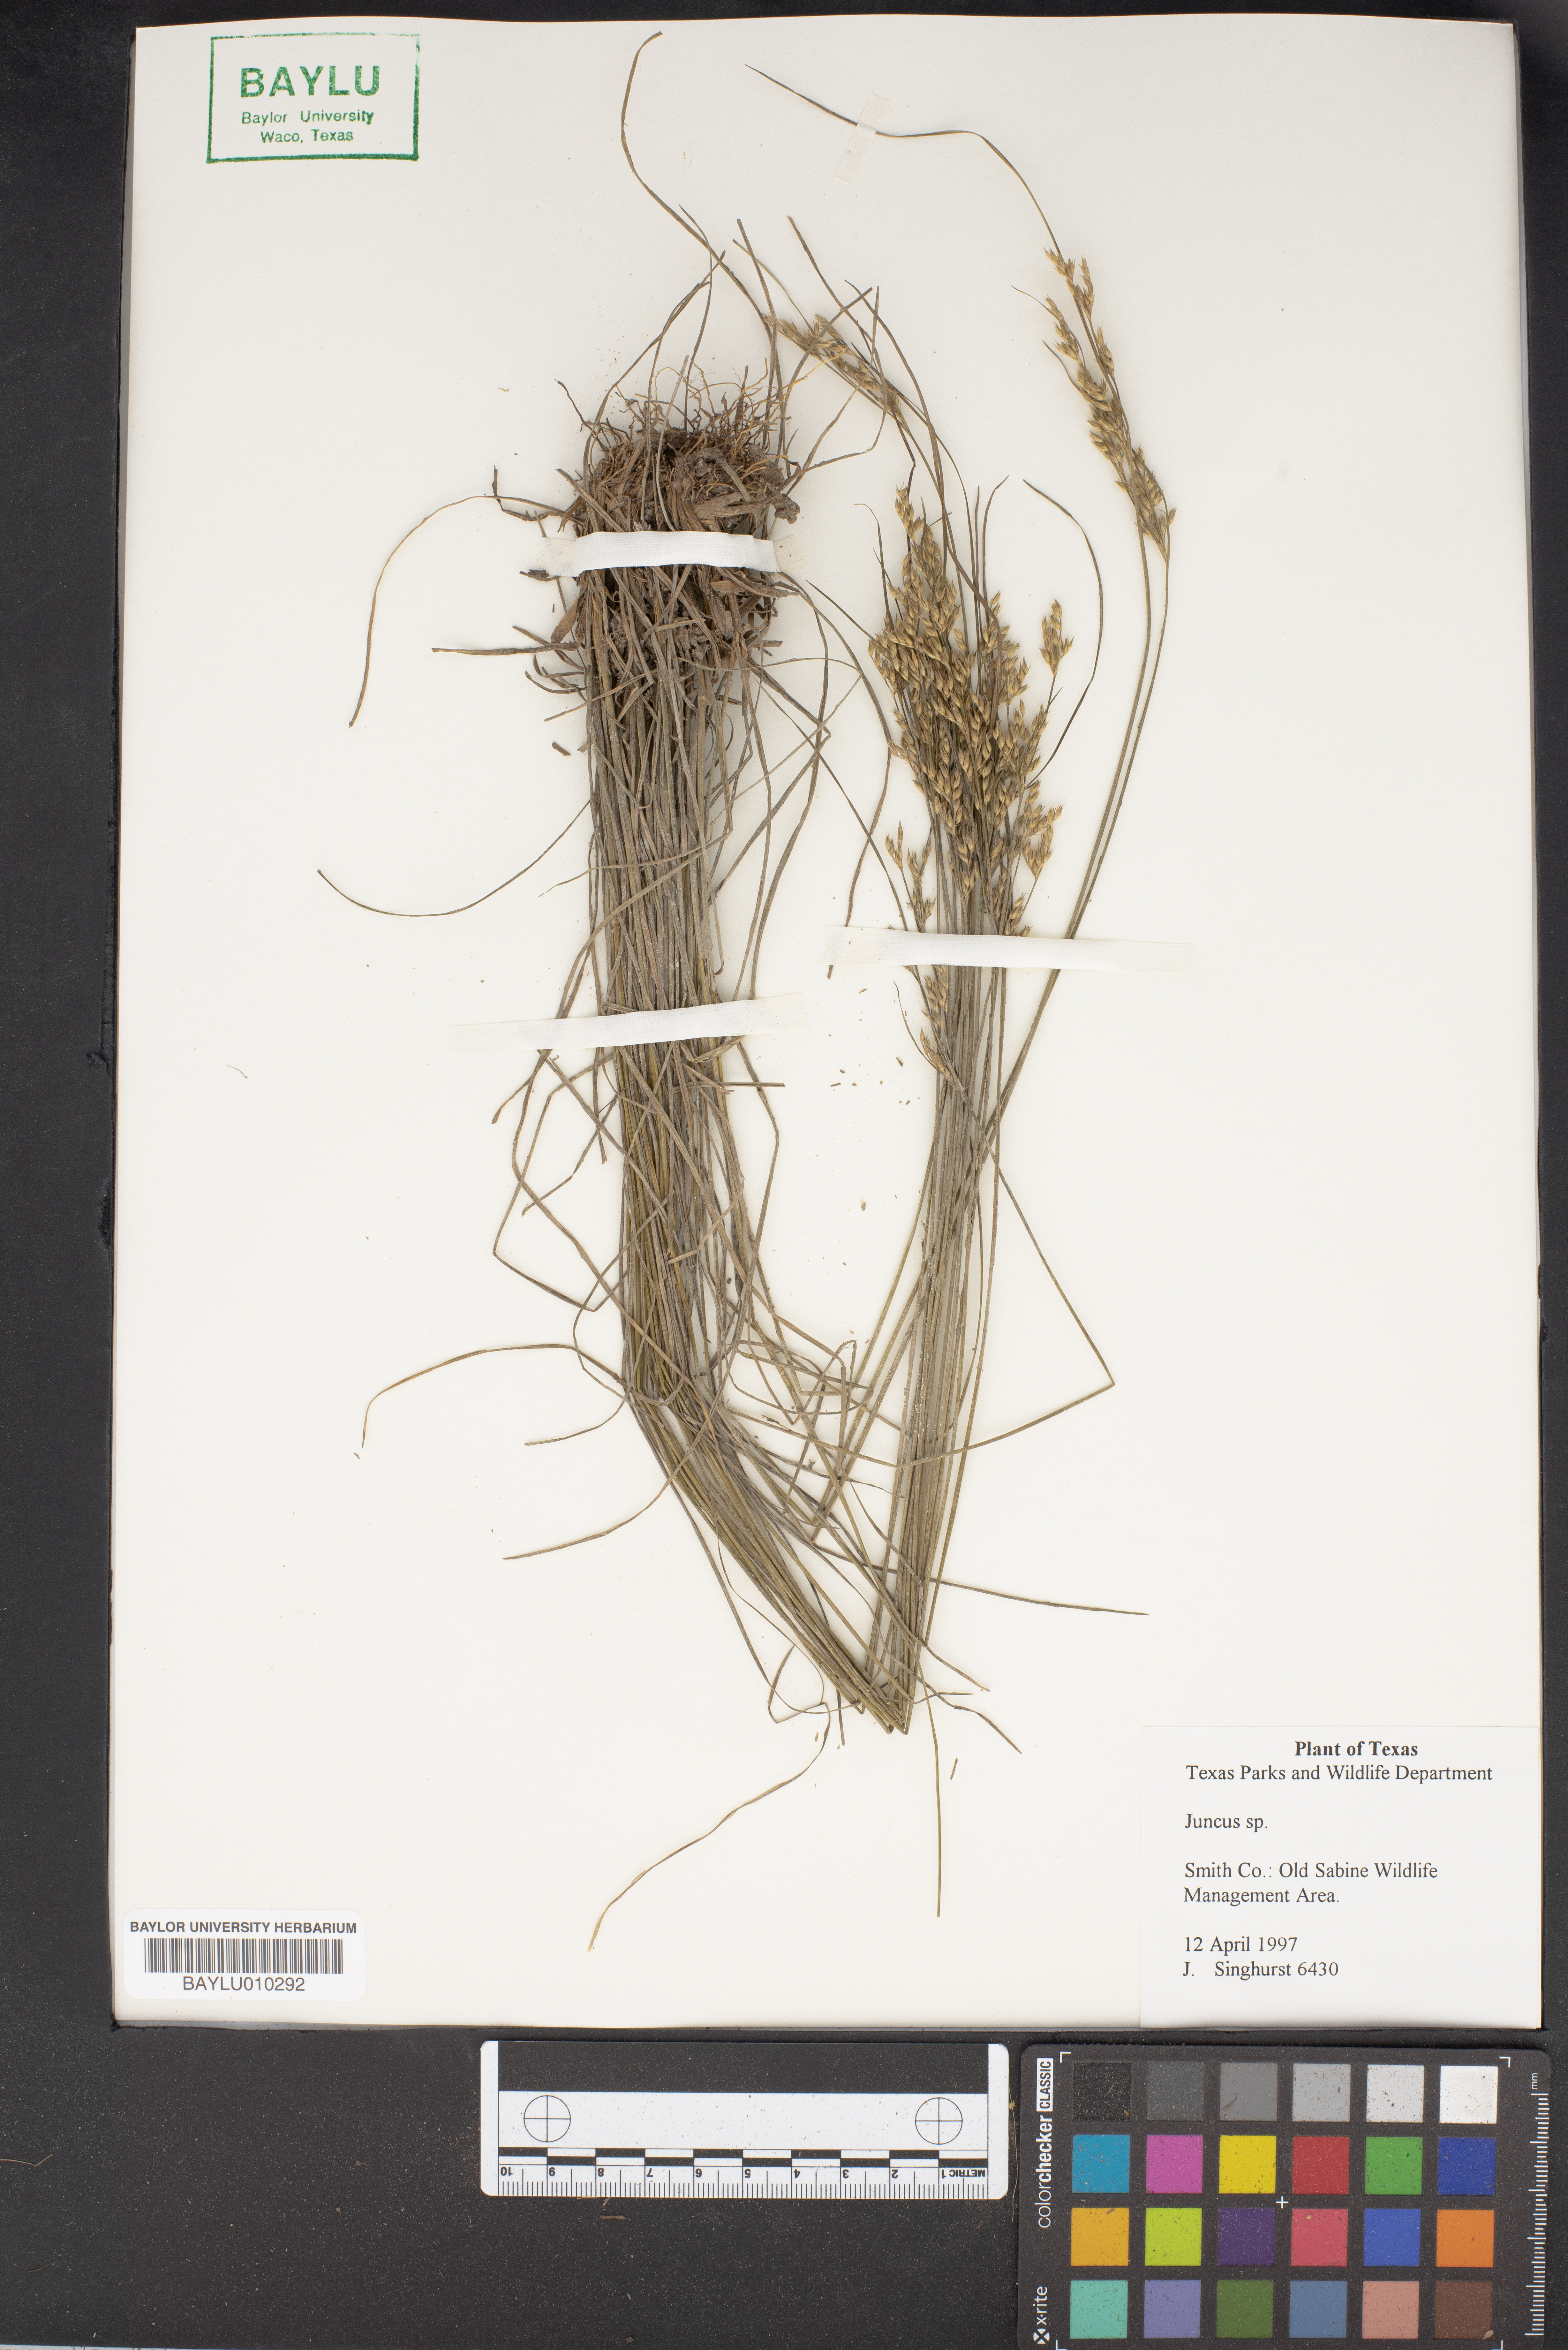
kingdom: Plantae
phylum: Tracheophyta
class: Liliopsida
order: Poales
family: Juncaceae
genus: Juncus
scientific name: Juncus
